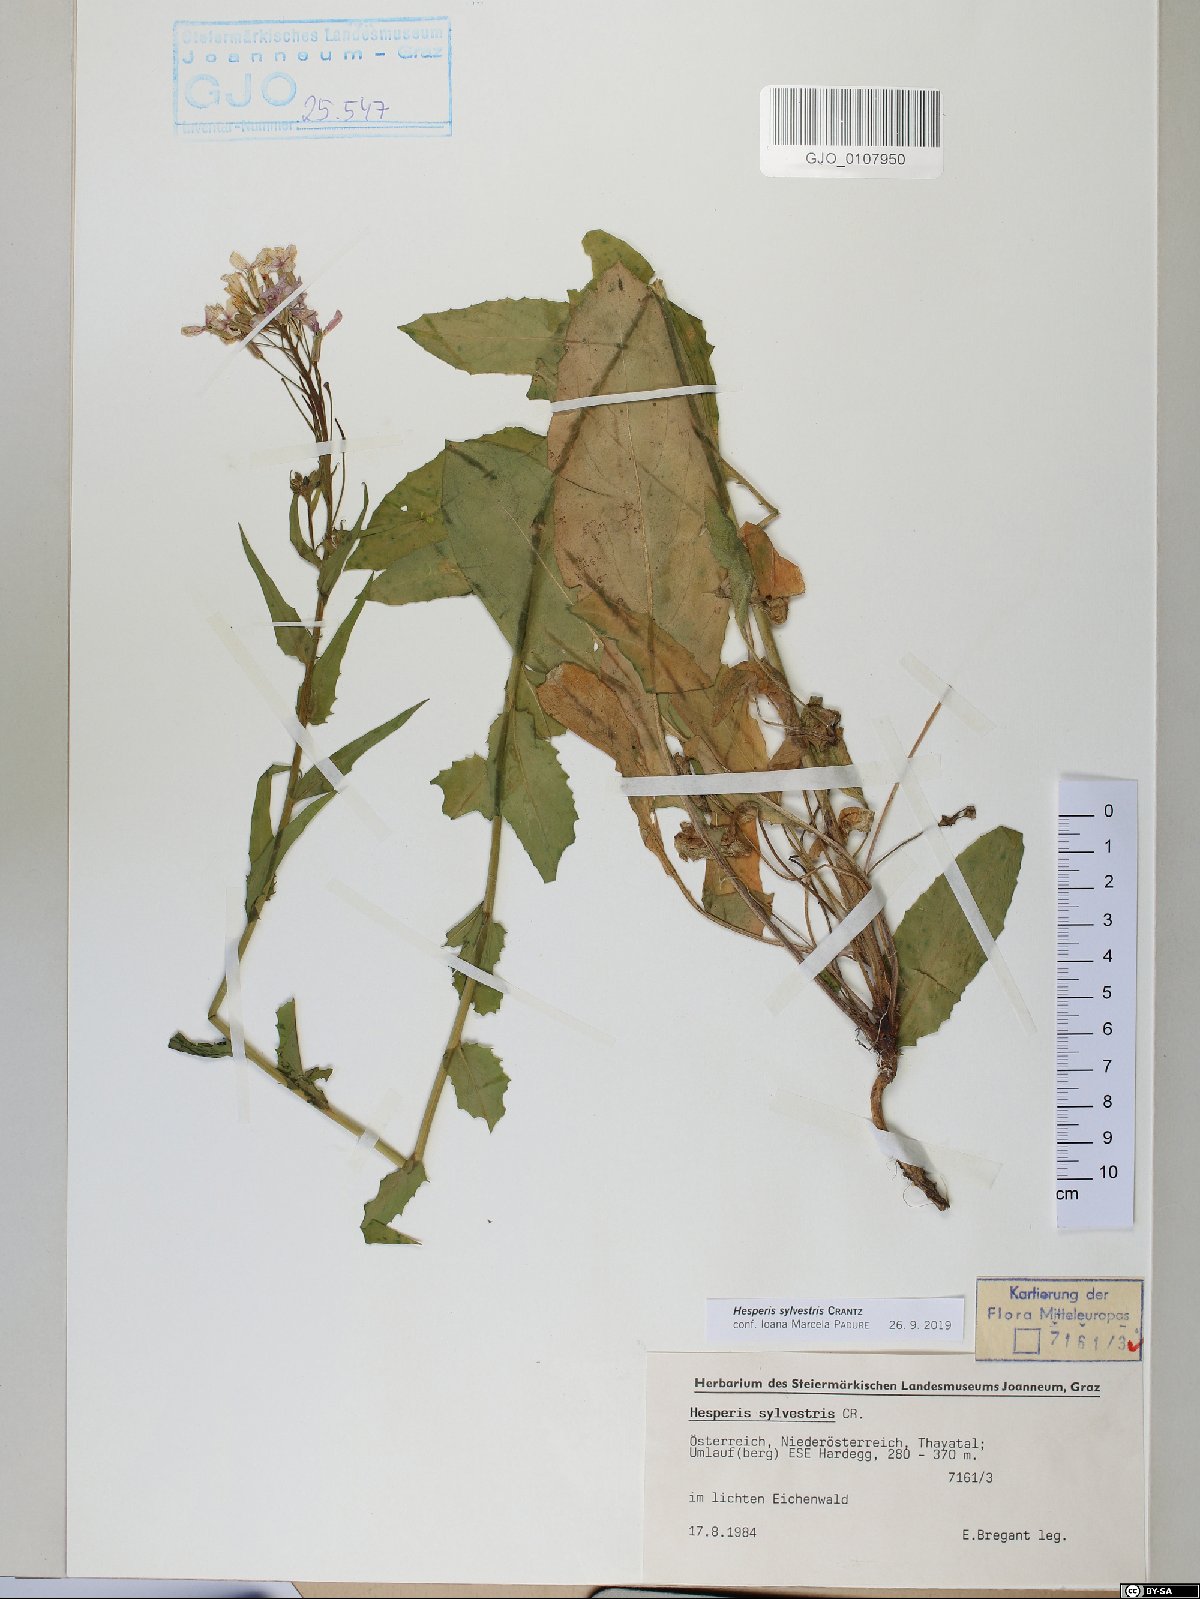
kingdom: Plantae
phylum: Tracheophyta
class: Magnoliopsida
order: Brassicales
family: Brassicaceae
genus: Hesperis
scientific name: Hesperis sylvestris
